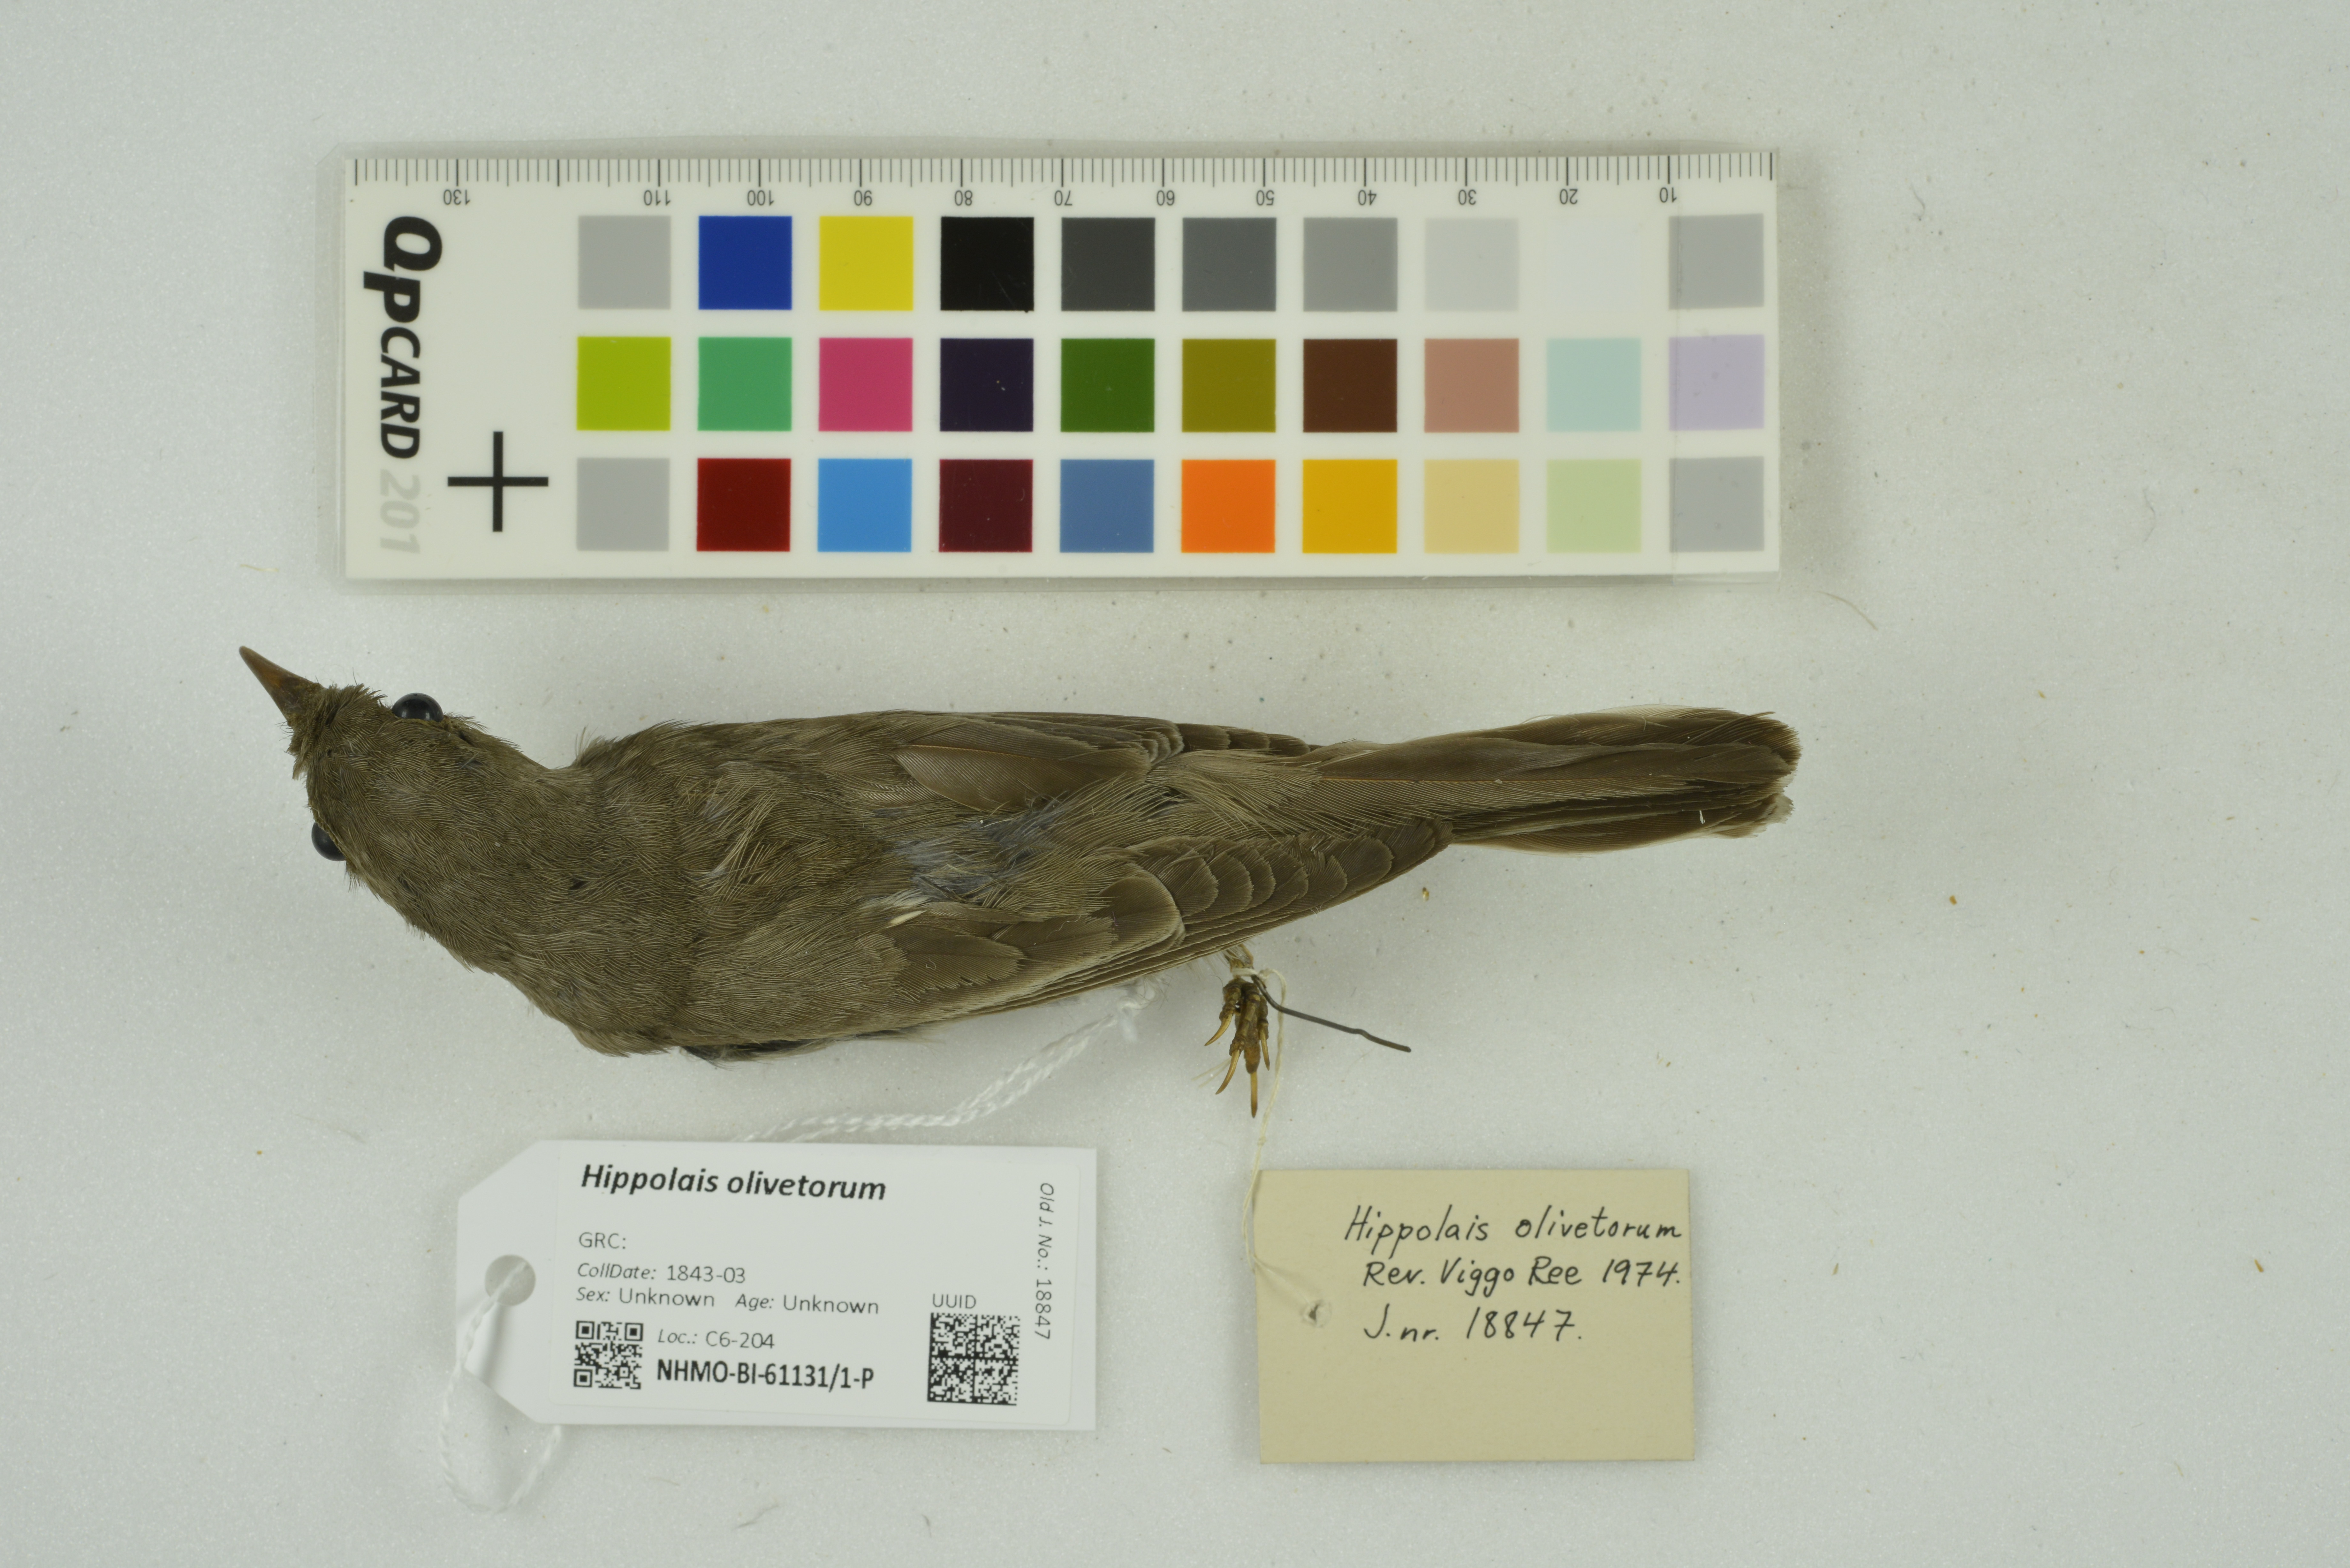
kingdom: Animalia
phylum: Chordata
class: Aves
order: Passeriformes
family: Acrocephalidae
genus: Hippolais
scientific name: Hippolais olivetorum
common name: Olive-tree warbler
